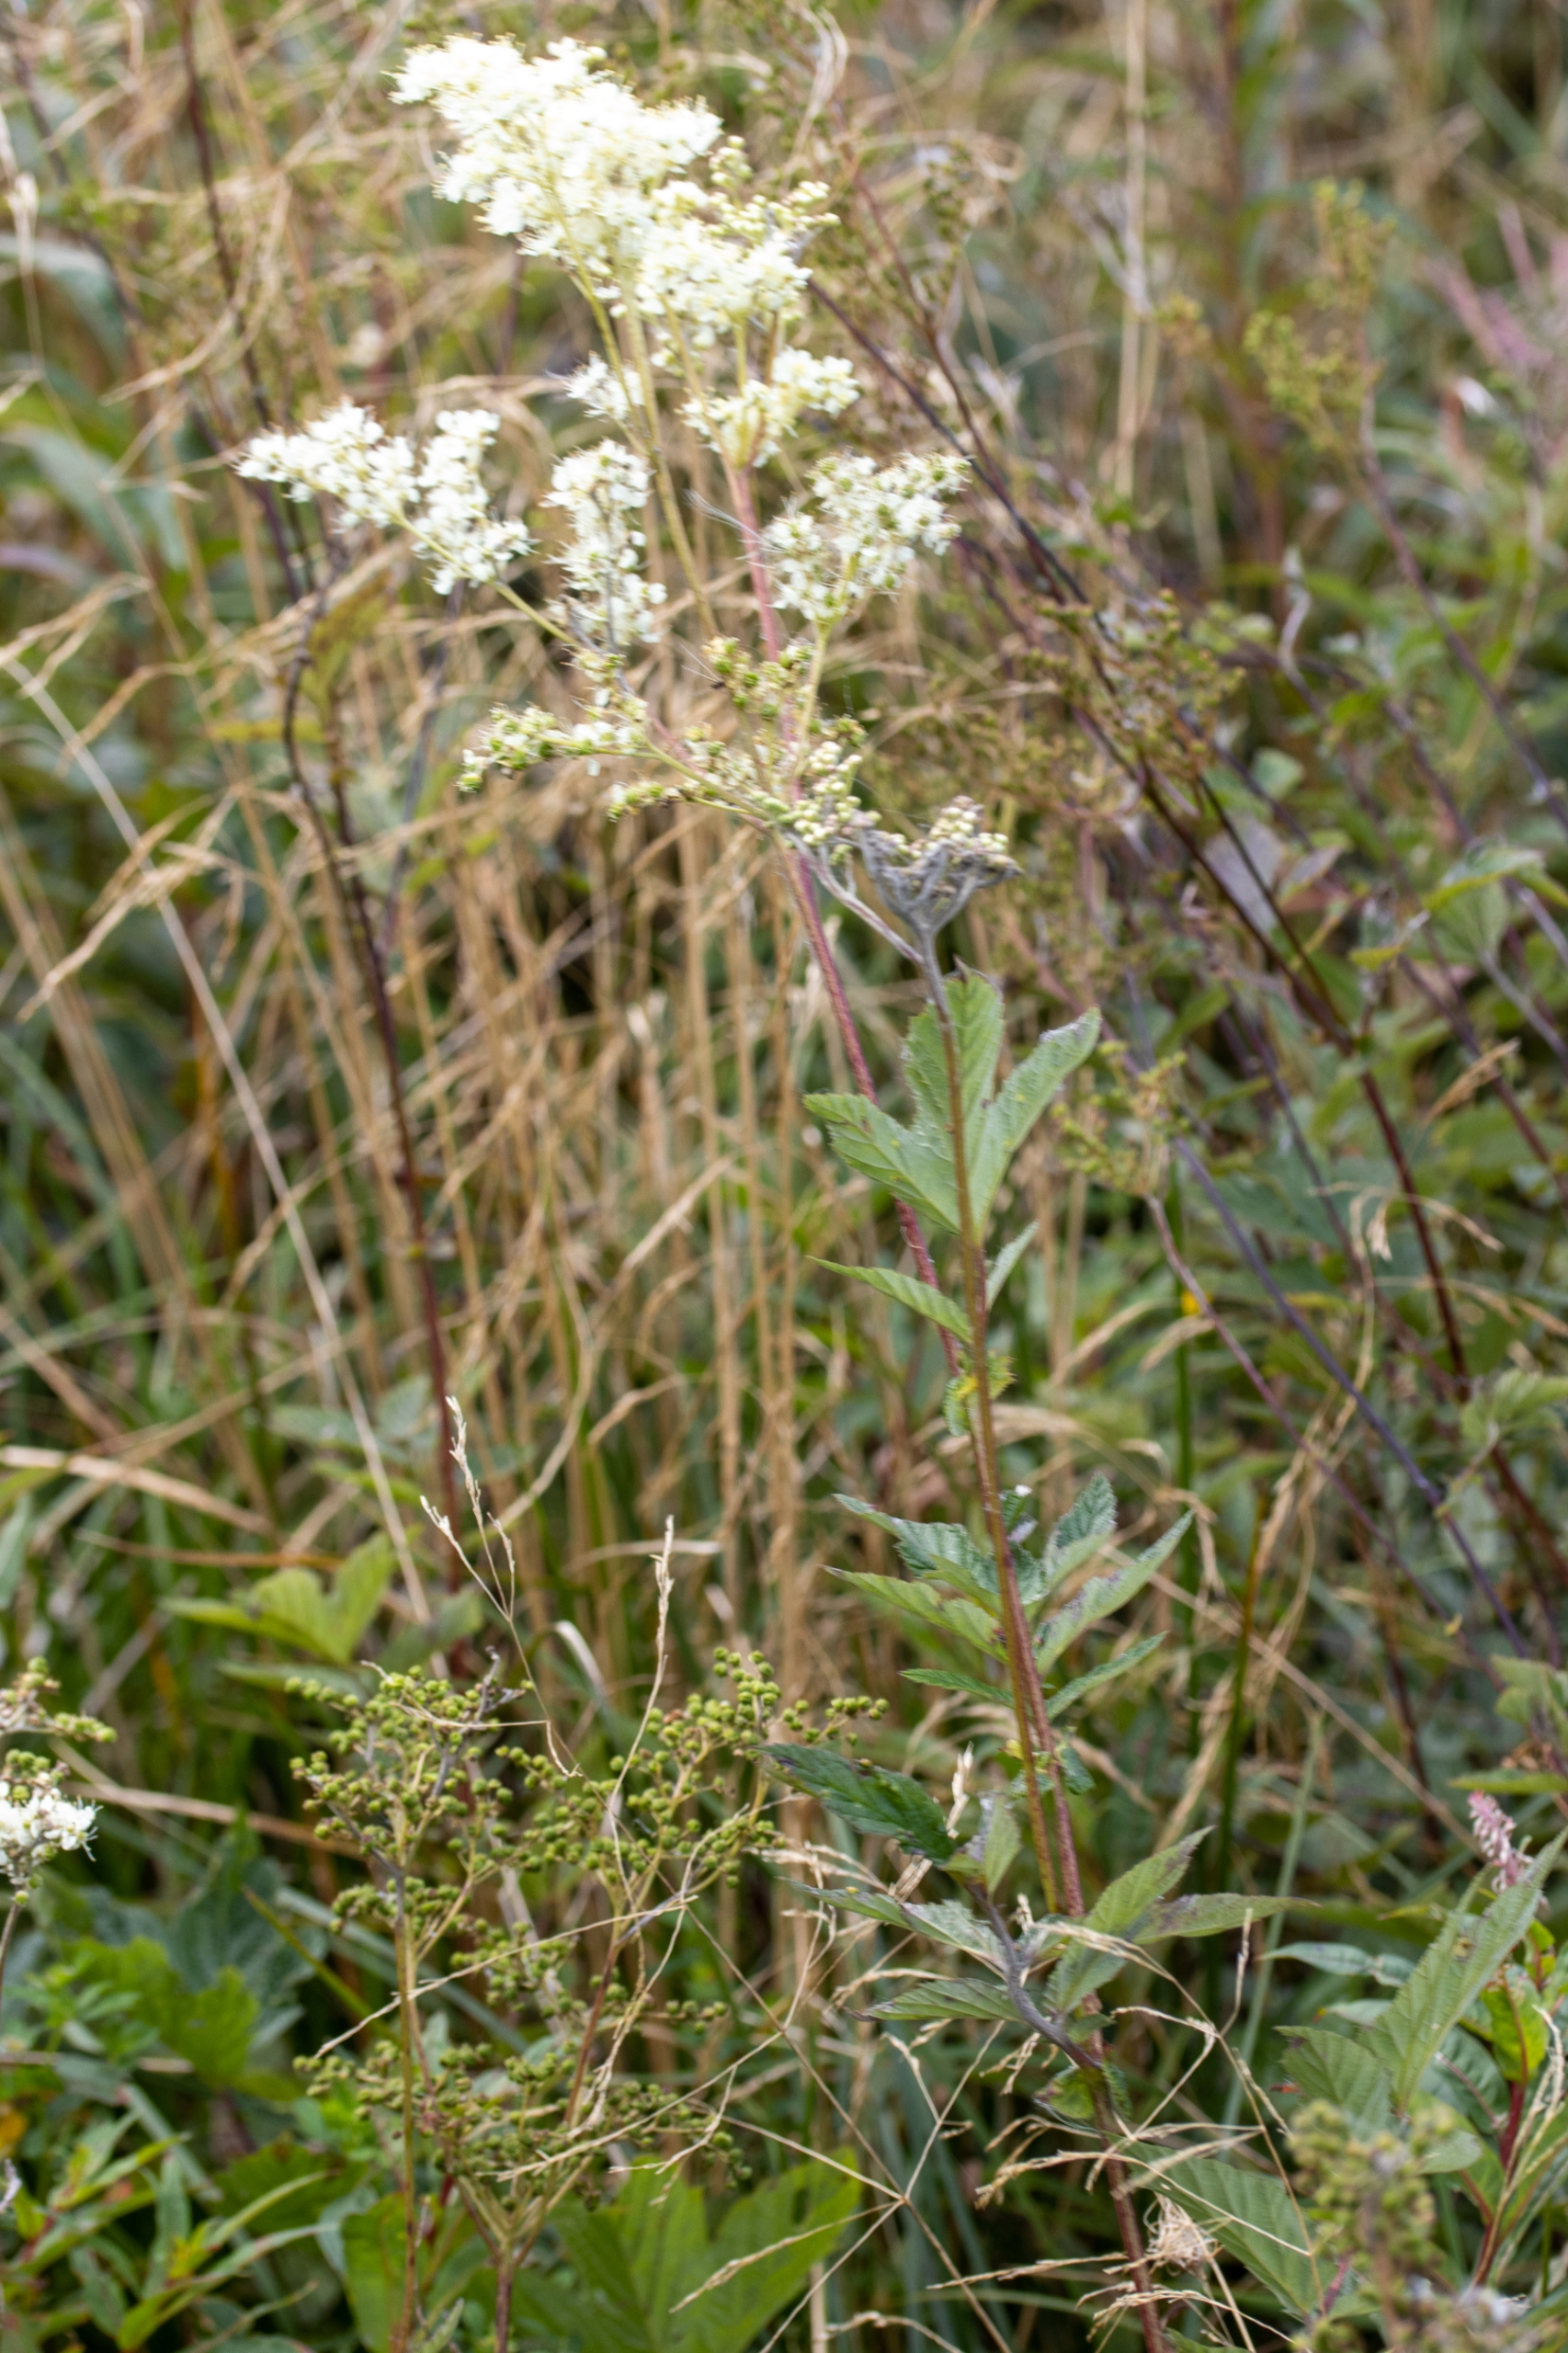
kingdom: Plantae
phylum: Tracheophyta
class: Magnoliopsida
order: Rosales
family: Rosaceae
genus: Filipendula
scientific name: Filipendula ulmaria
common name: Almindelig mjødurt
